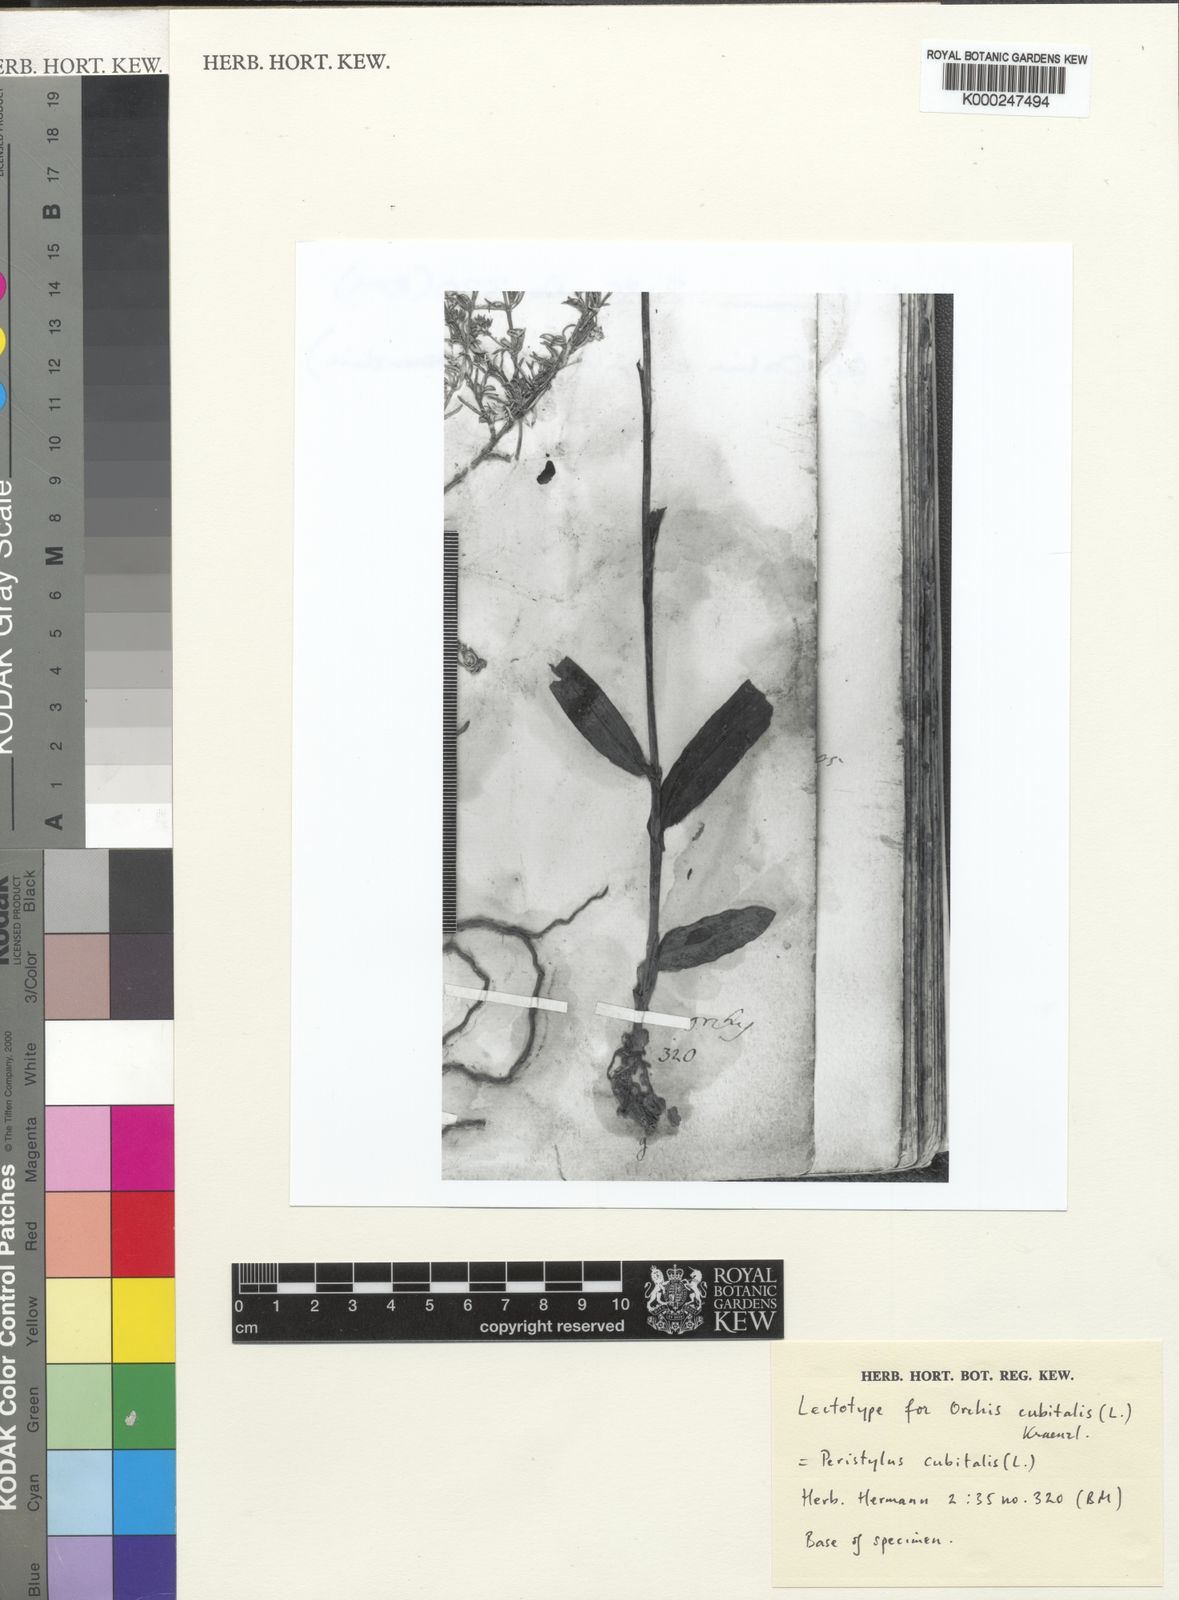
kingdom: Plantae
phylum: Tracheophyta
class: Liliopsida
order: Asparagales
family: Orchidaceae
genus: Peristylus
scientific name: Peristylus cubitalis
